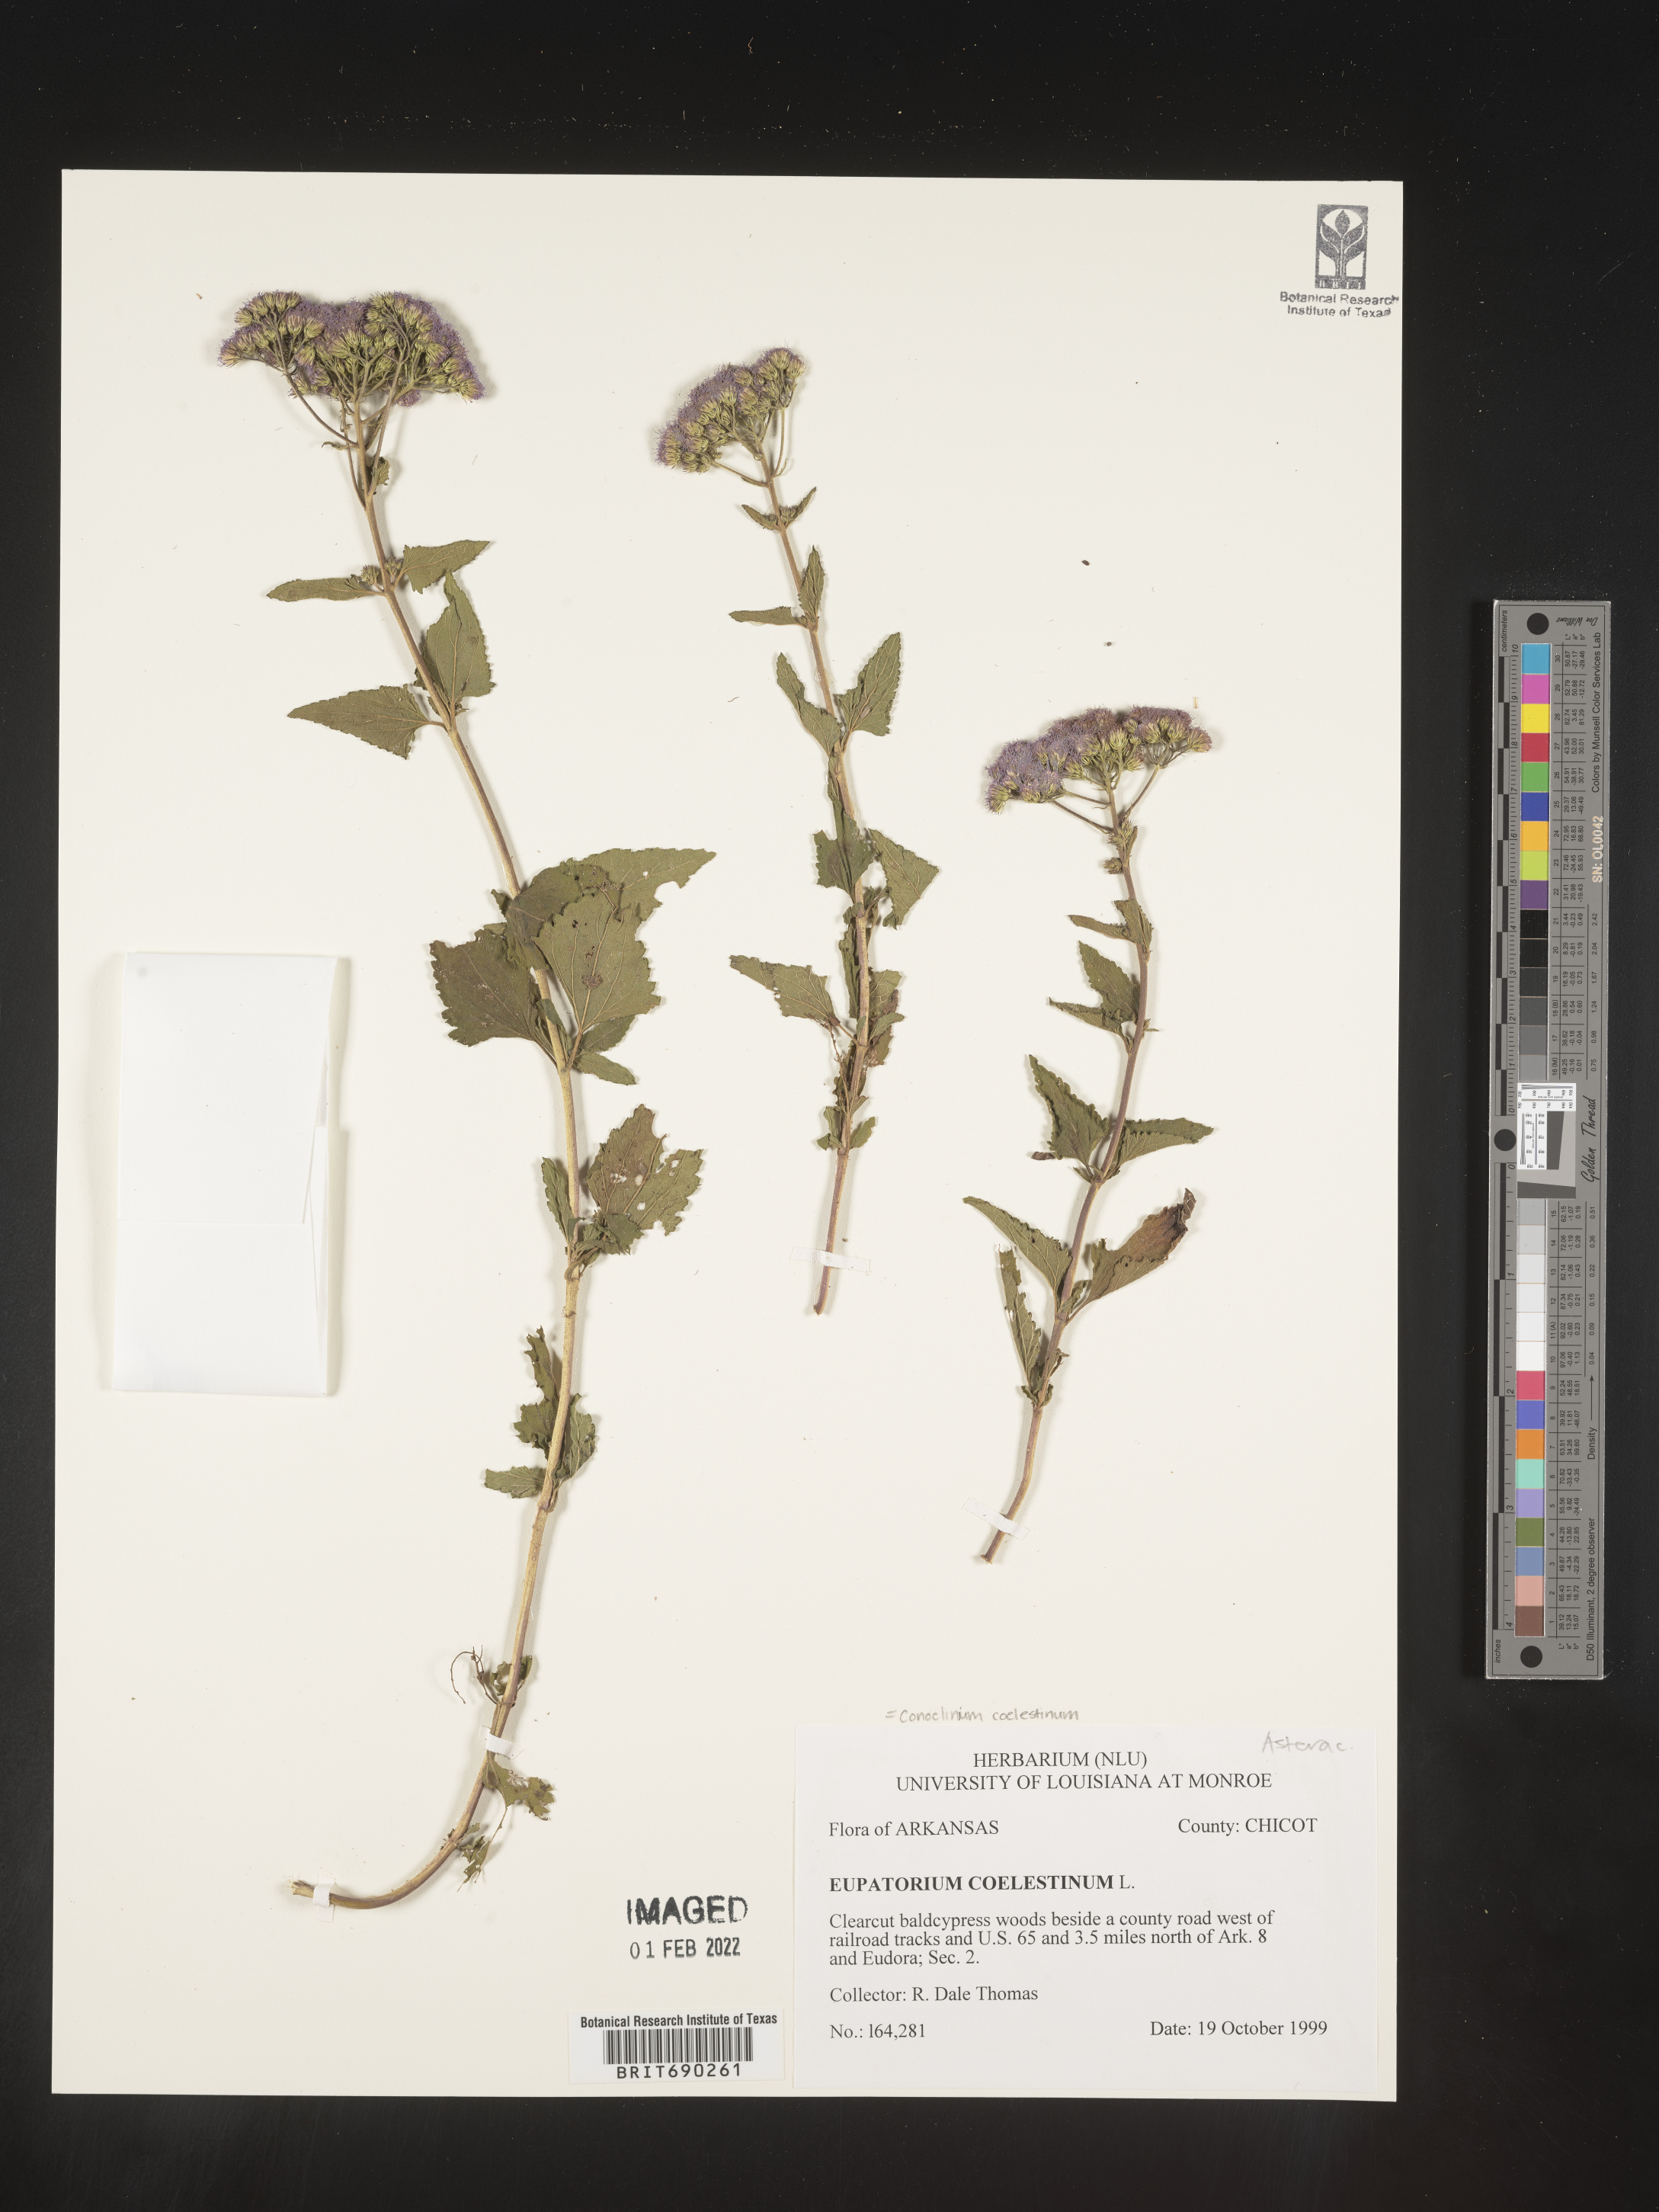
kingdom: Plantae
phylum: Tracheophyta
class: Magnoliopsida
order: Asterales
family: Asteraceae
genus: Conoclinium
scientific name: Conoclinium coelestinum
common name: Blue mistflower
